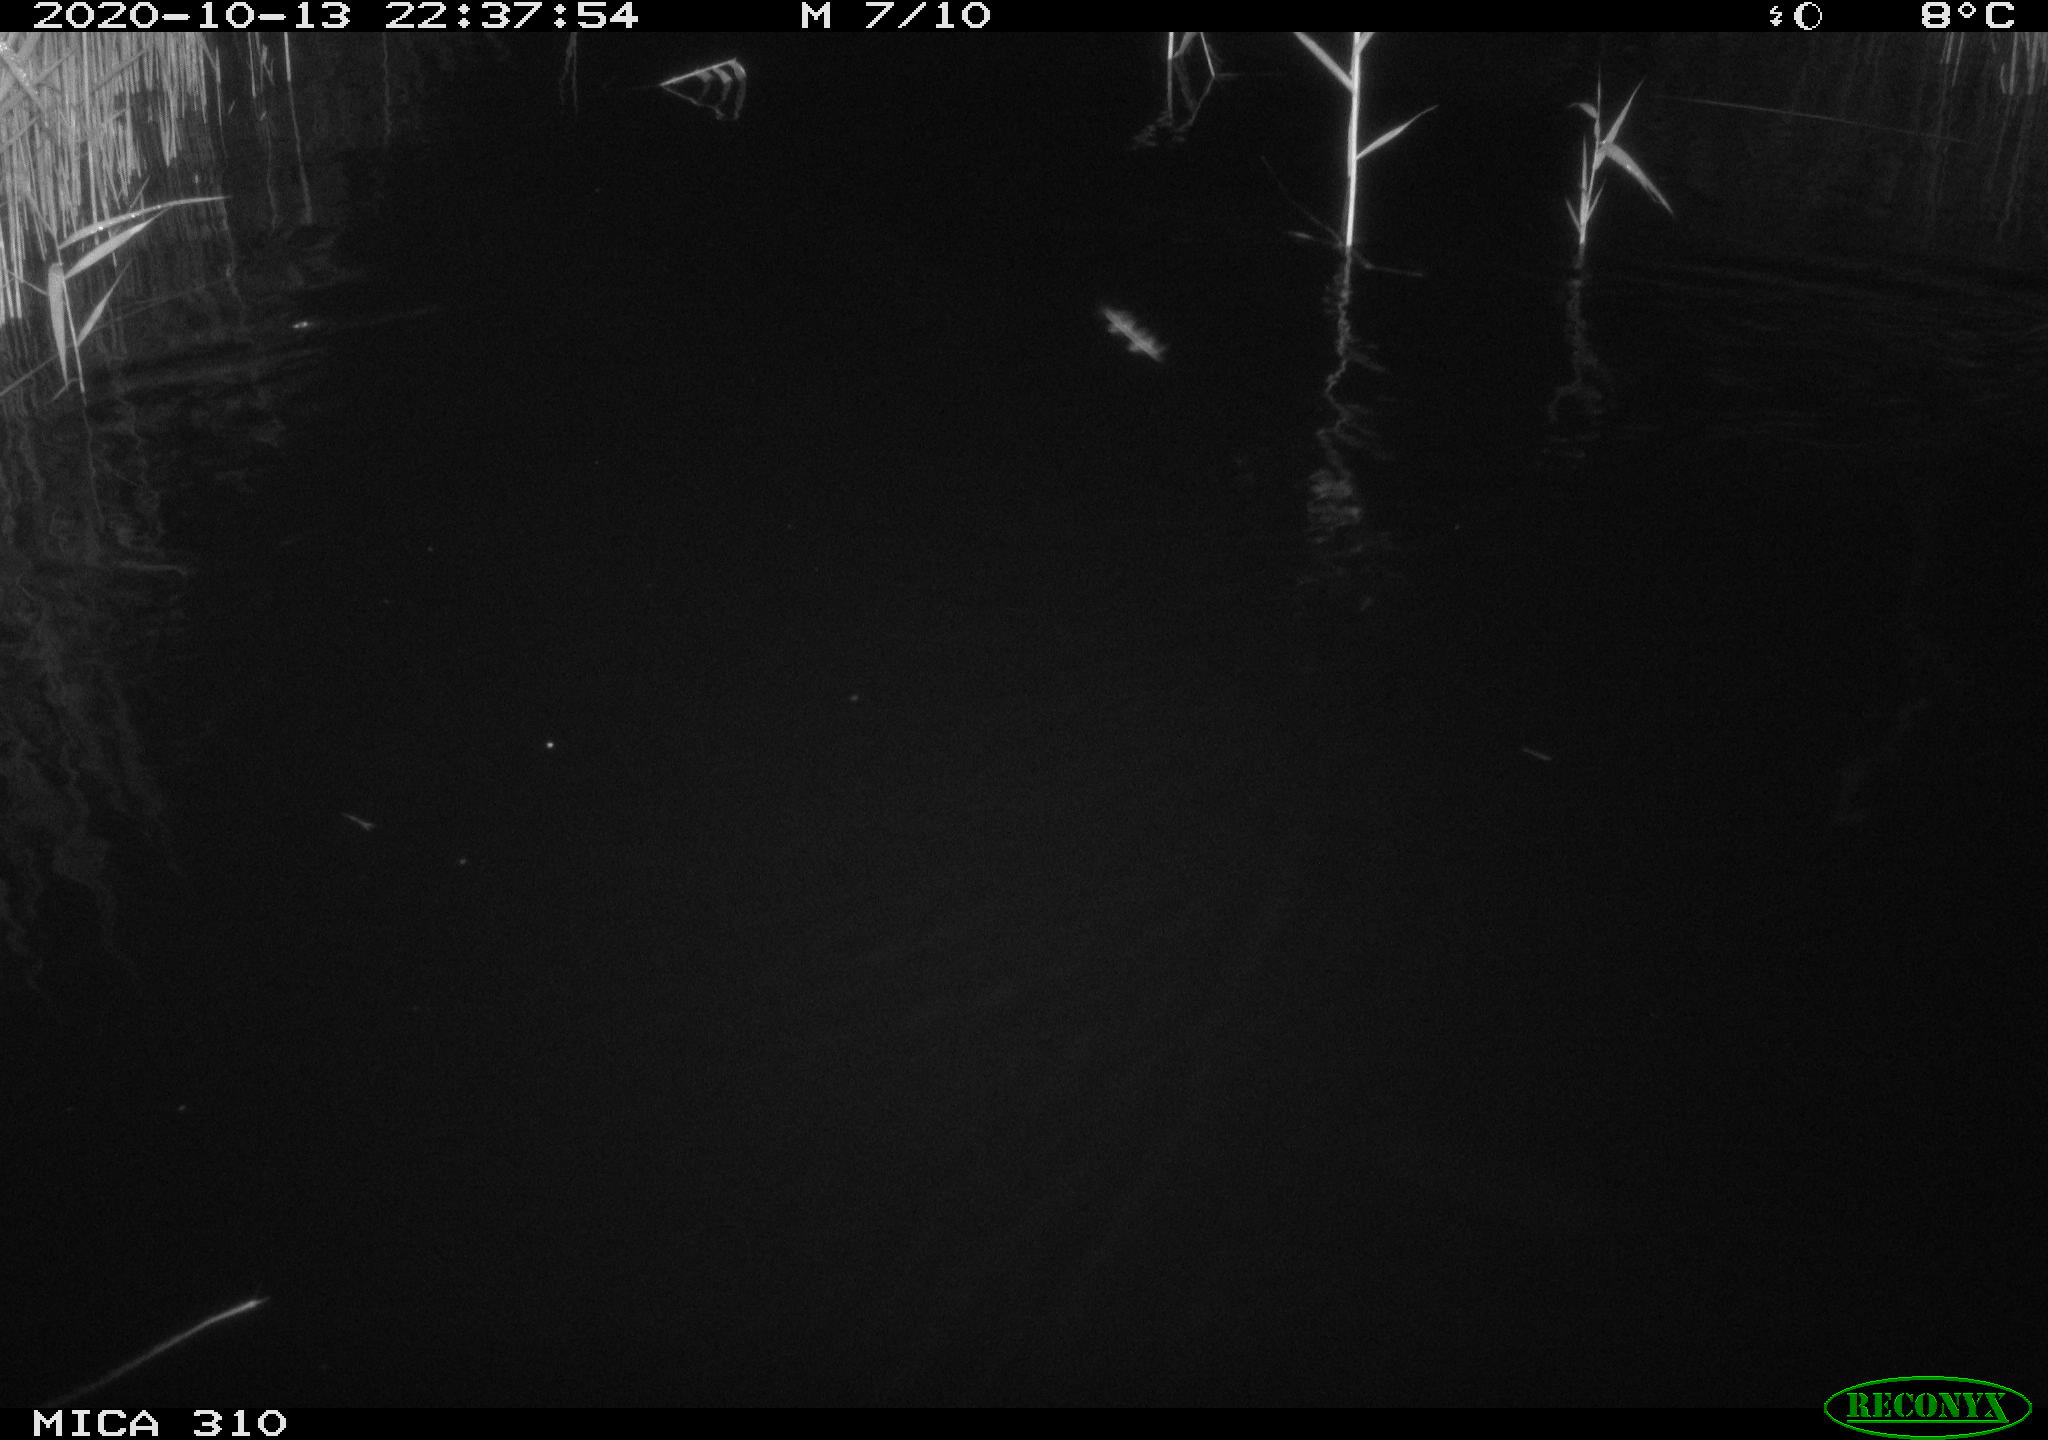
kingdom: Animalia
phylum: Chordata
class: Mammalia
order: Rodentia
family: Muridae
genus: Rattus
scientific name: Rattus norvegicus
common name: Brown rat
